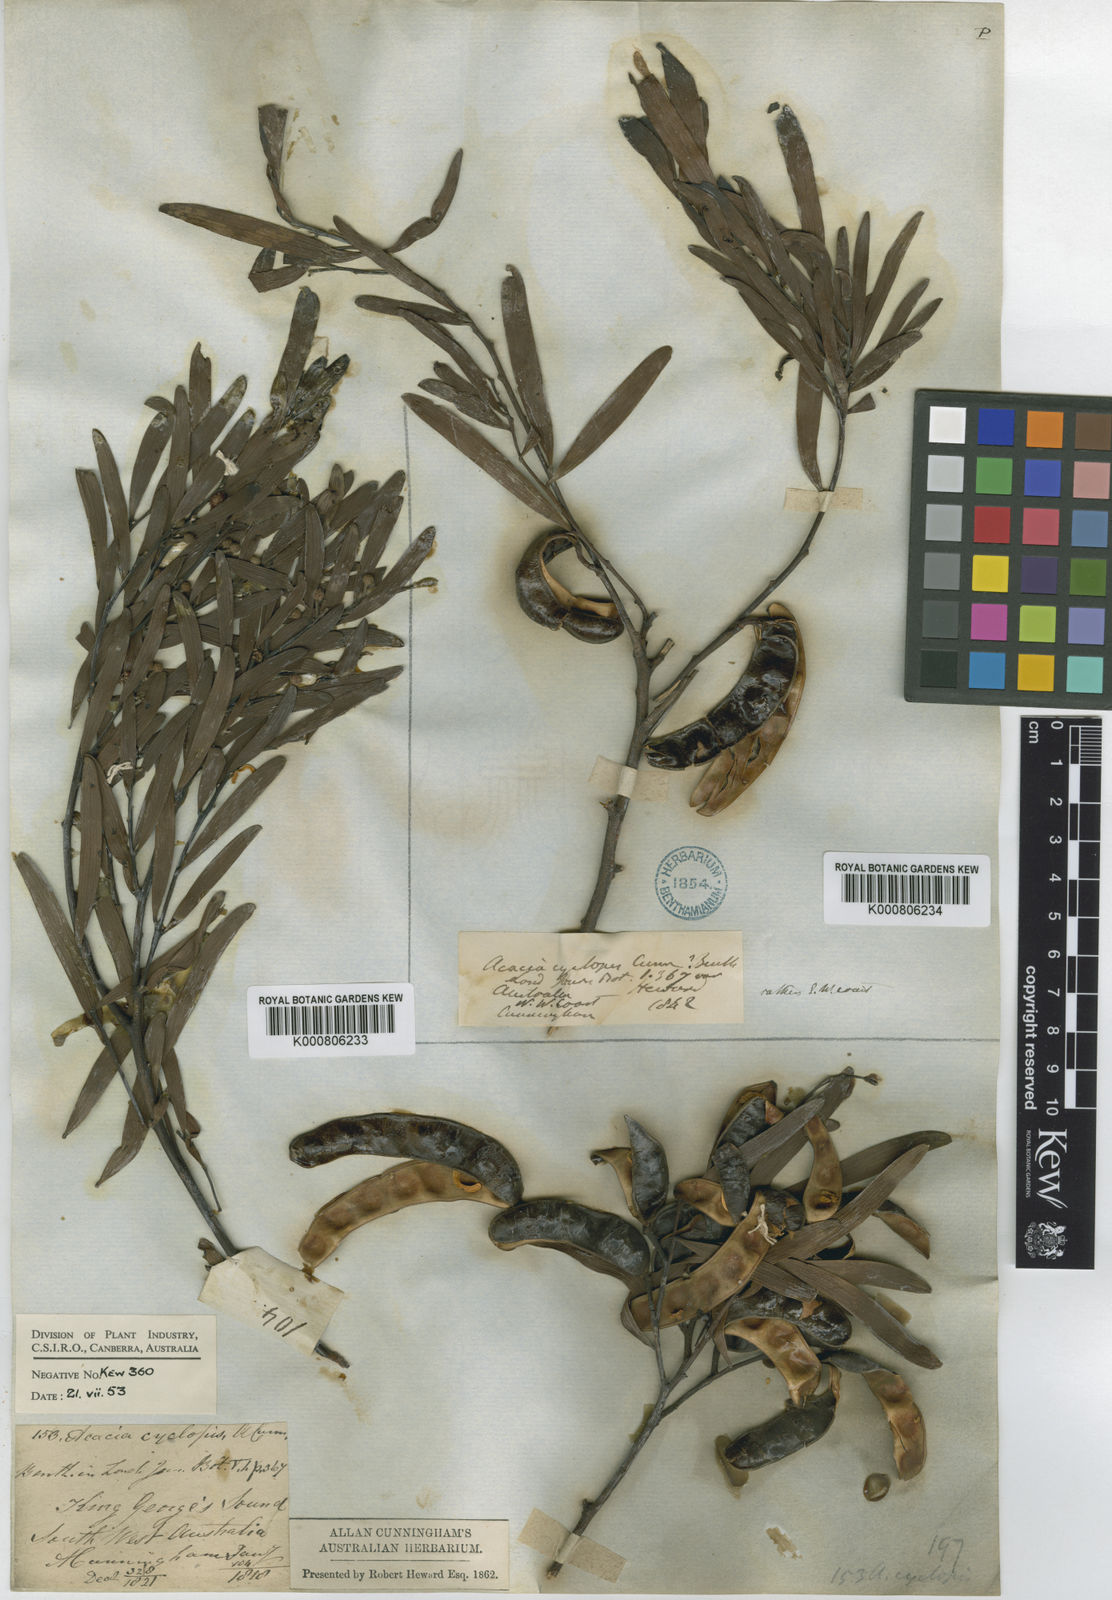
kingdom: Plantae
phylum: Tracheophyta
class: Magnoliopsida
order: Fabales
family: Fabaceae
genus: Acacia
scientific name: Acacia
